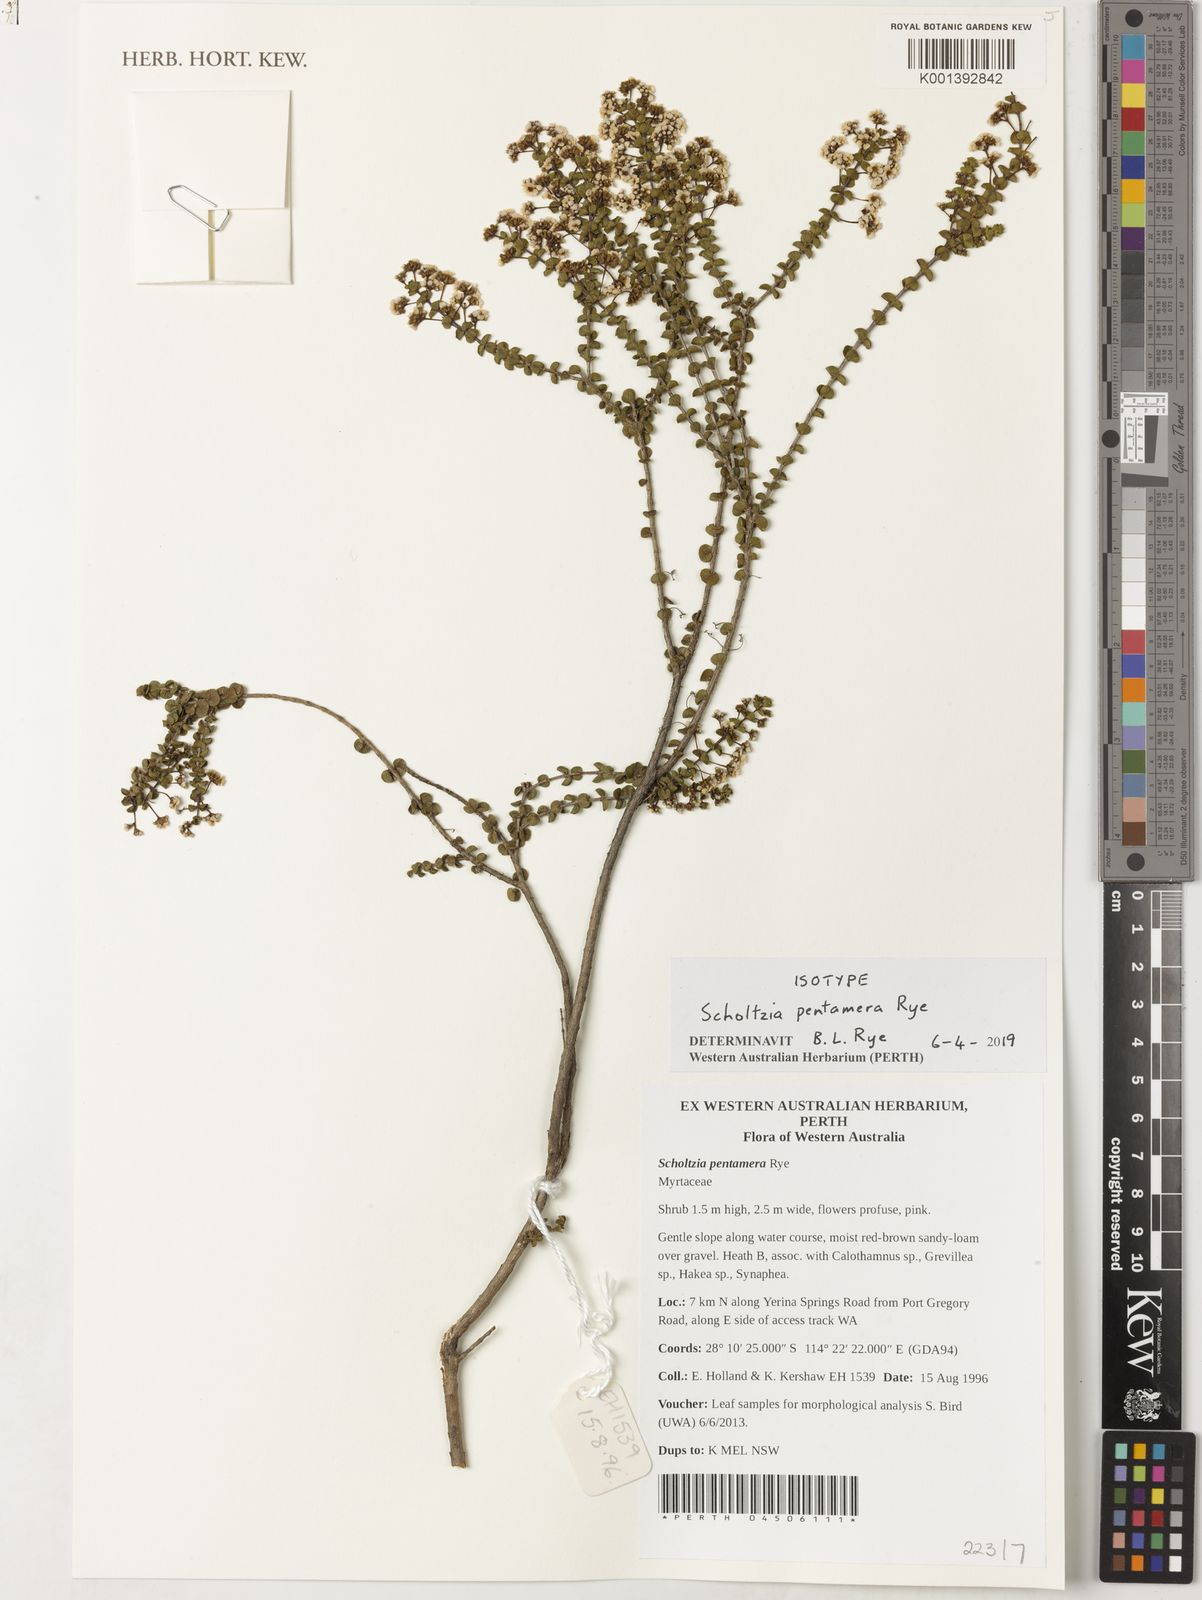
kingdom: Plantae
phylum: Tracheophyta
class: Magnoliopsida
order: Myrtales
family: Myrtaceae
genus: Scholtzia
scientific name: Scholtzia
